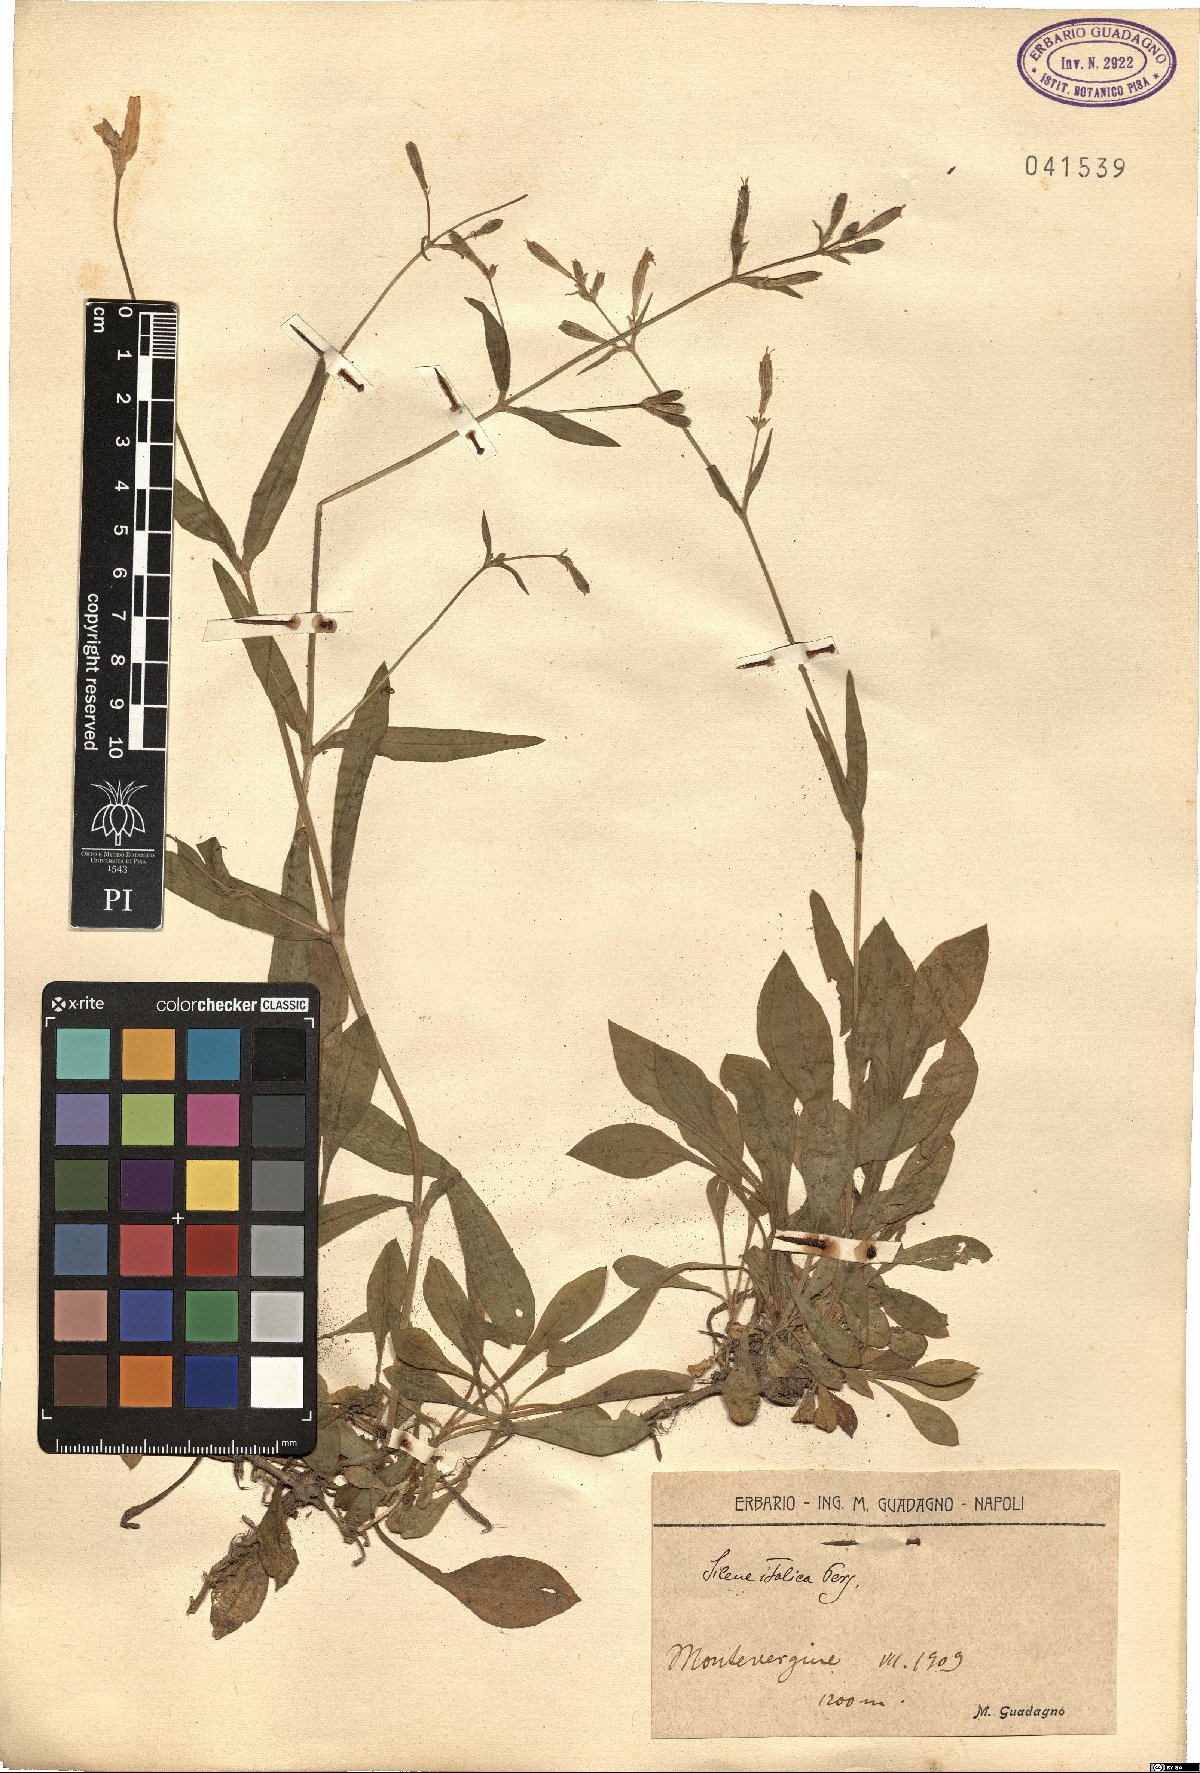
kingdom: Plantae
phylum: Tracheophyta
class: Magnoliopsida
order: Caryophyllales
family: Caryophyllaceae
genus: Silene
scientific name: Silene italica
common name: Italian catchfly
